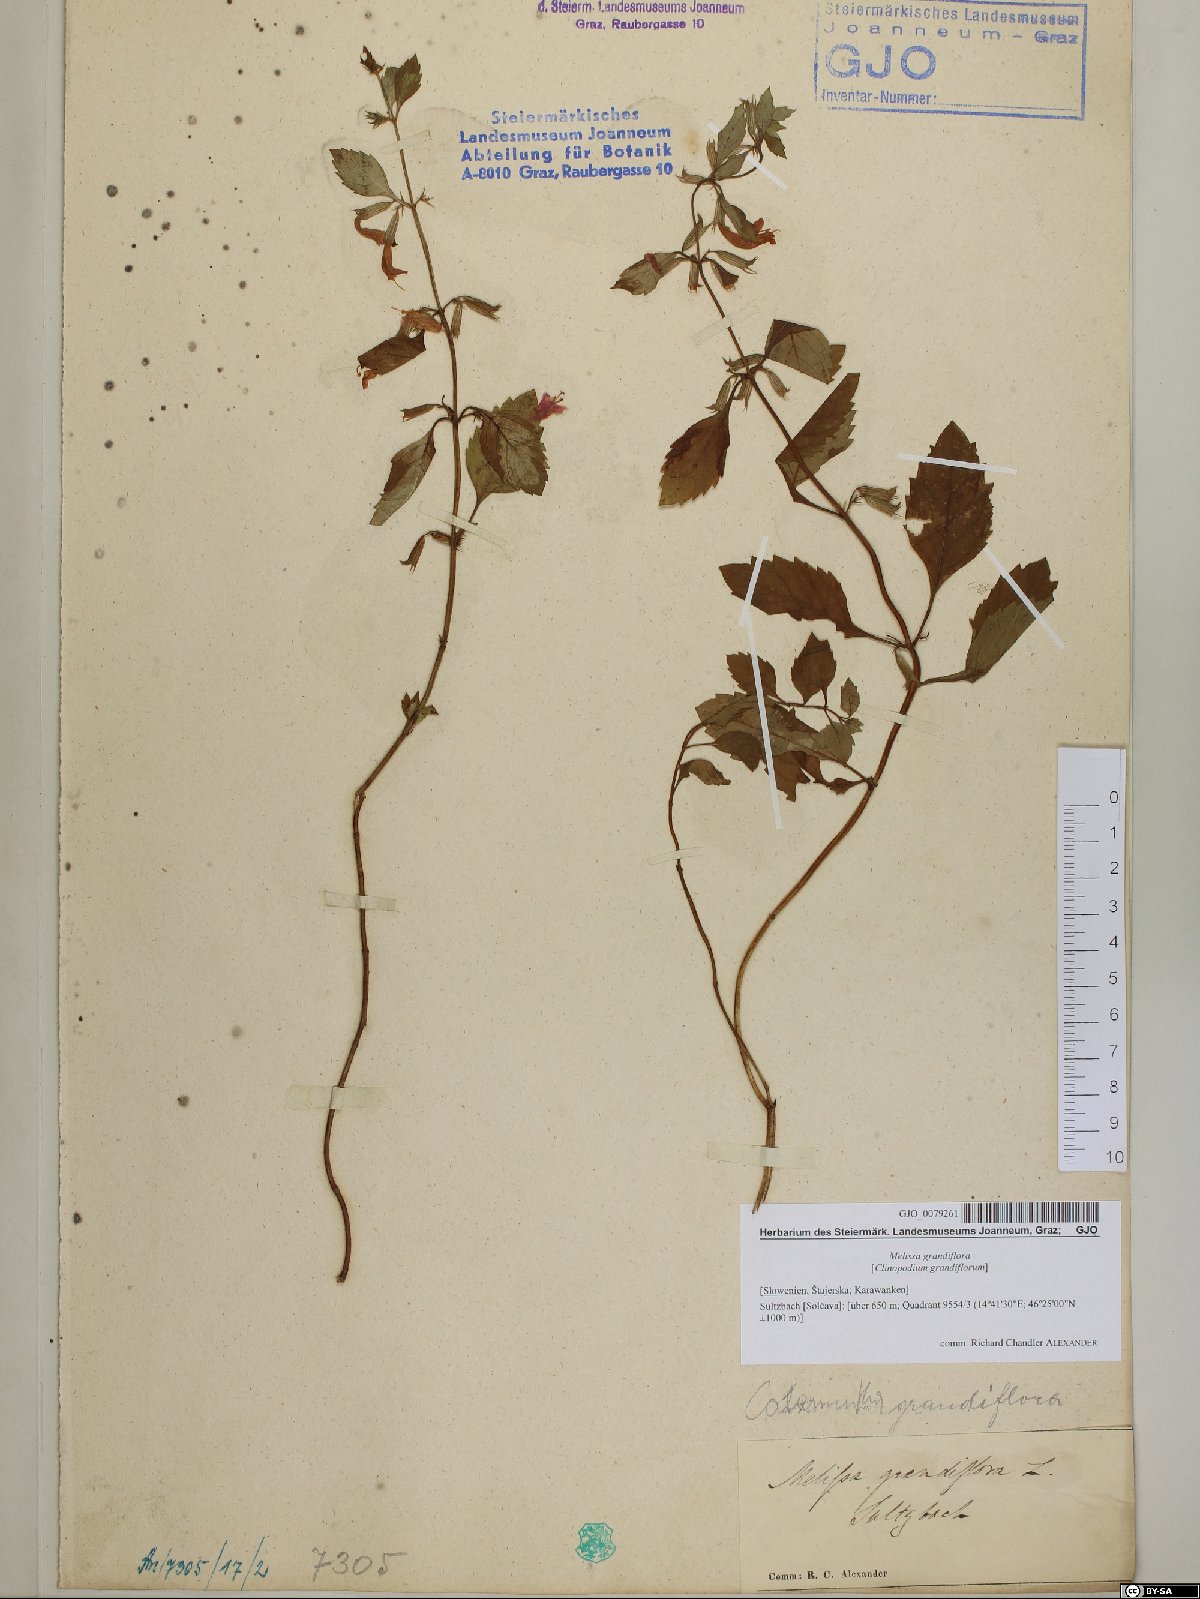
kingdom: Plantae
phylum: Tracheophyta
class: Magnoliopsida
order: Lamiales
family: Lamiaceae
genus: Clinopodium
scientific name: Clinopodium grandiflorum
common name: Greater calamint
